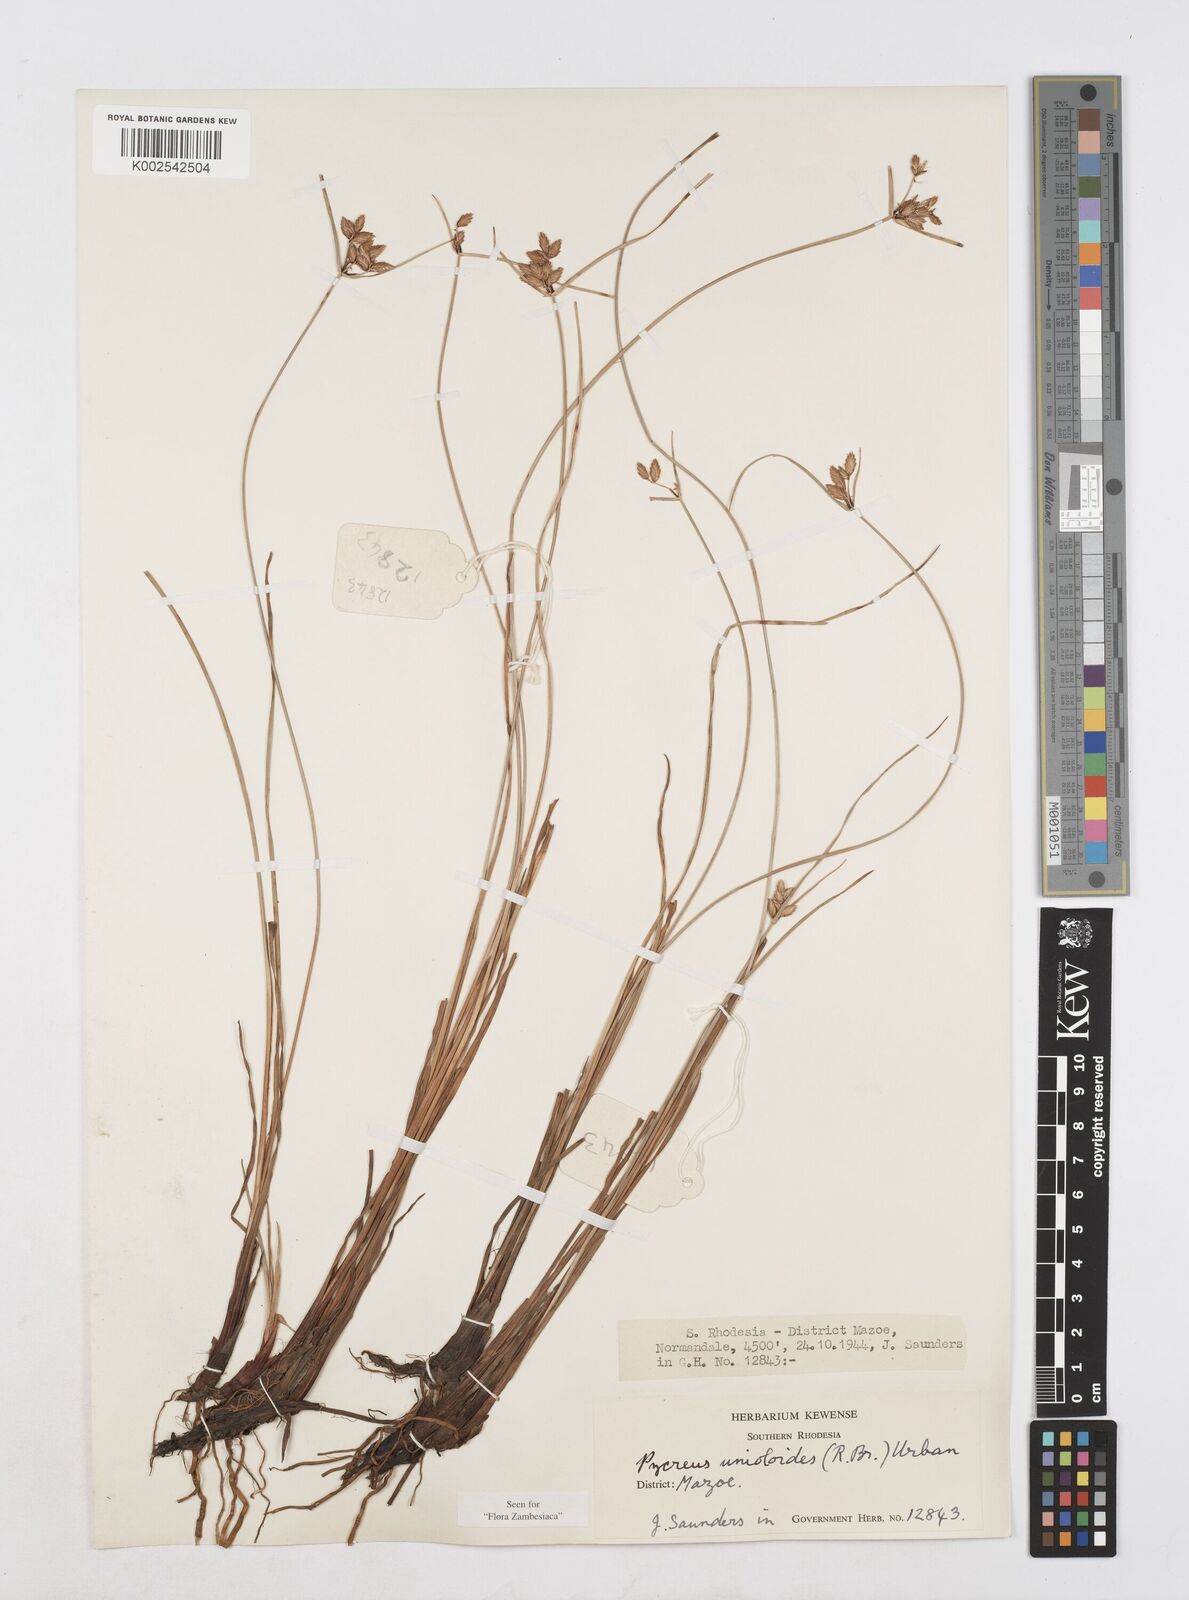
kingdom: Plantae
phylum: Tracheophyta
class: Liliopsida
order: Poales
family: Cyperaceae
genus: Cyperus
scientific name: Cyperus unioloides
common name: Uniola flatsedge
